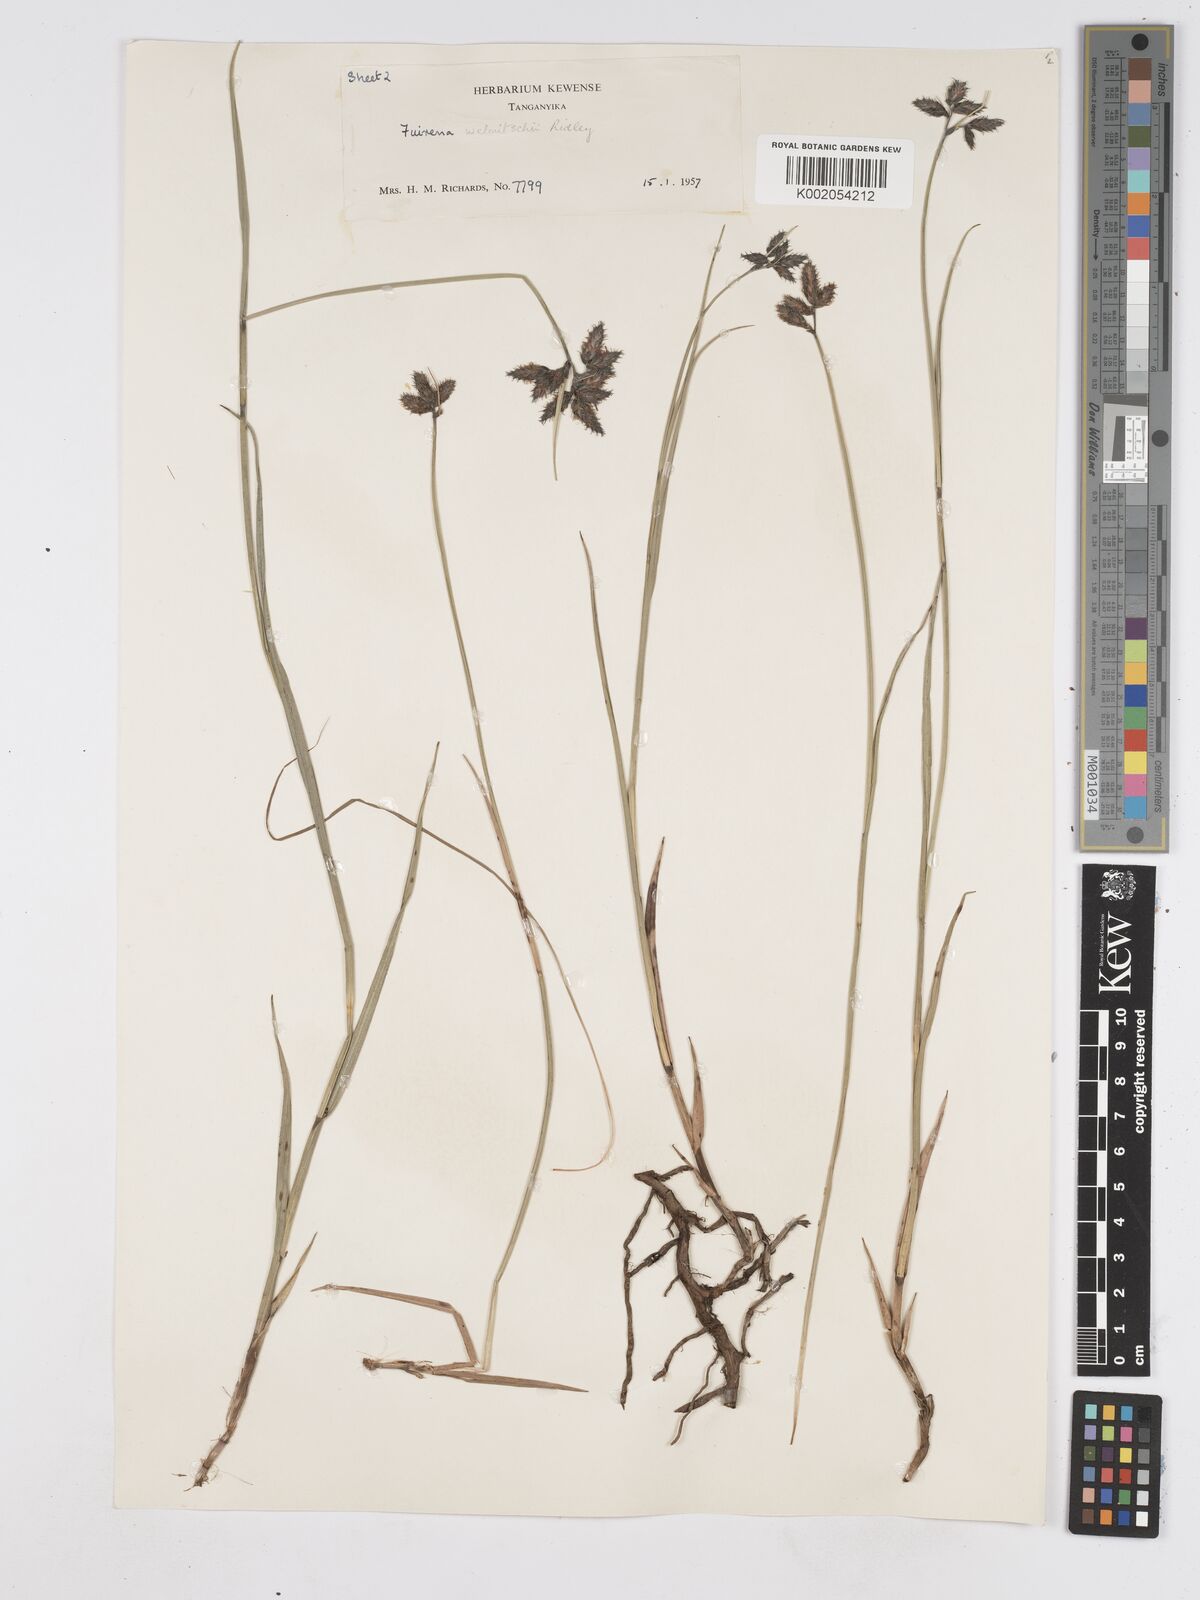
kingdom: Plantae
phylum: Tracheophyta
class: Liliopsida
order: Poales
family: Cyperaceae
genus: Fuirena
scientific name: Fuirena welwitschii
